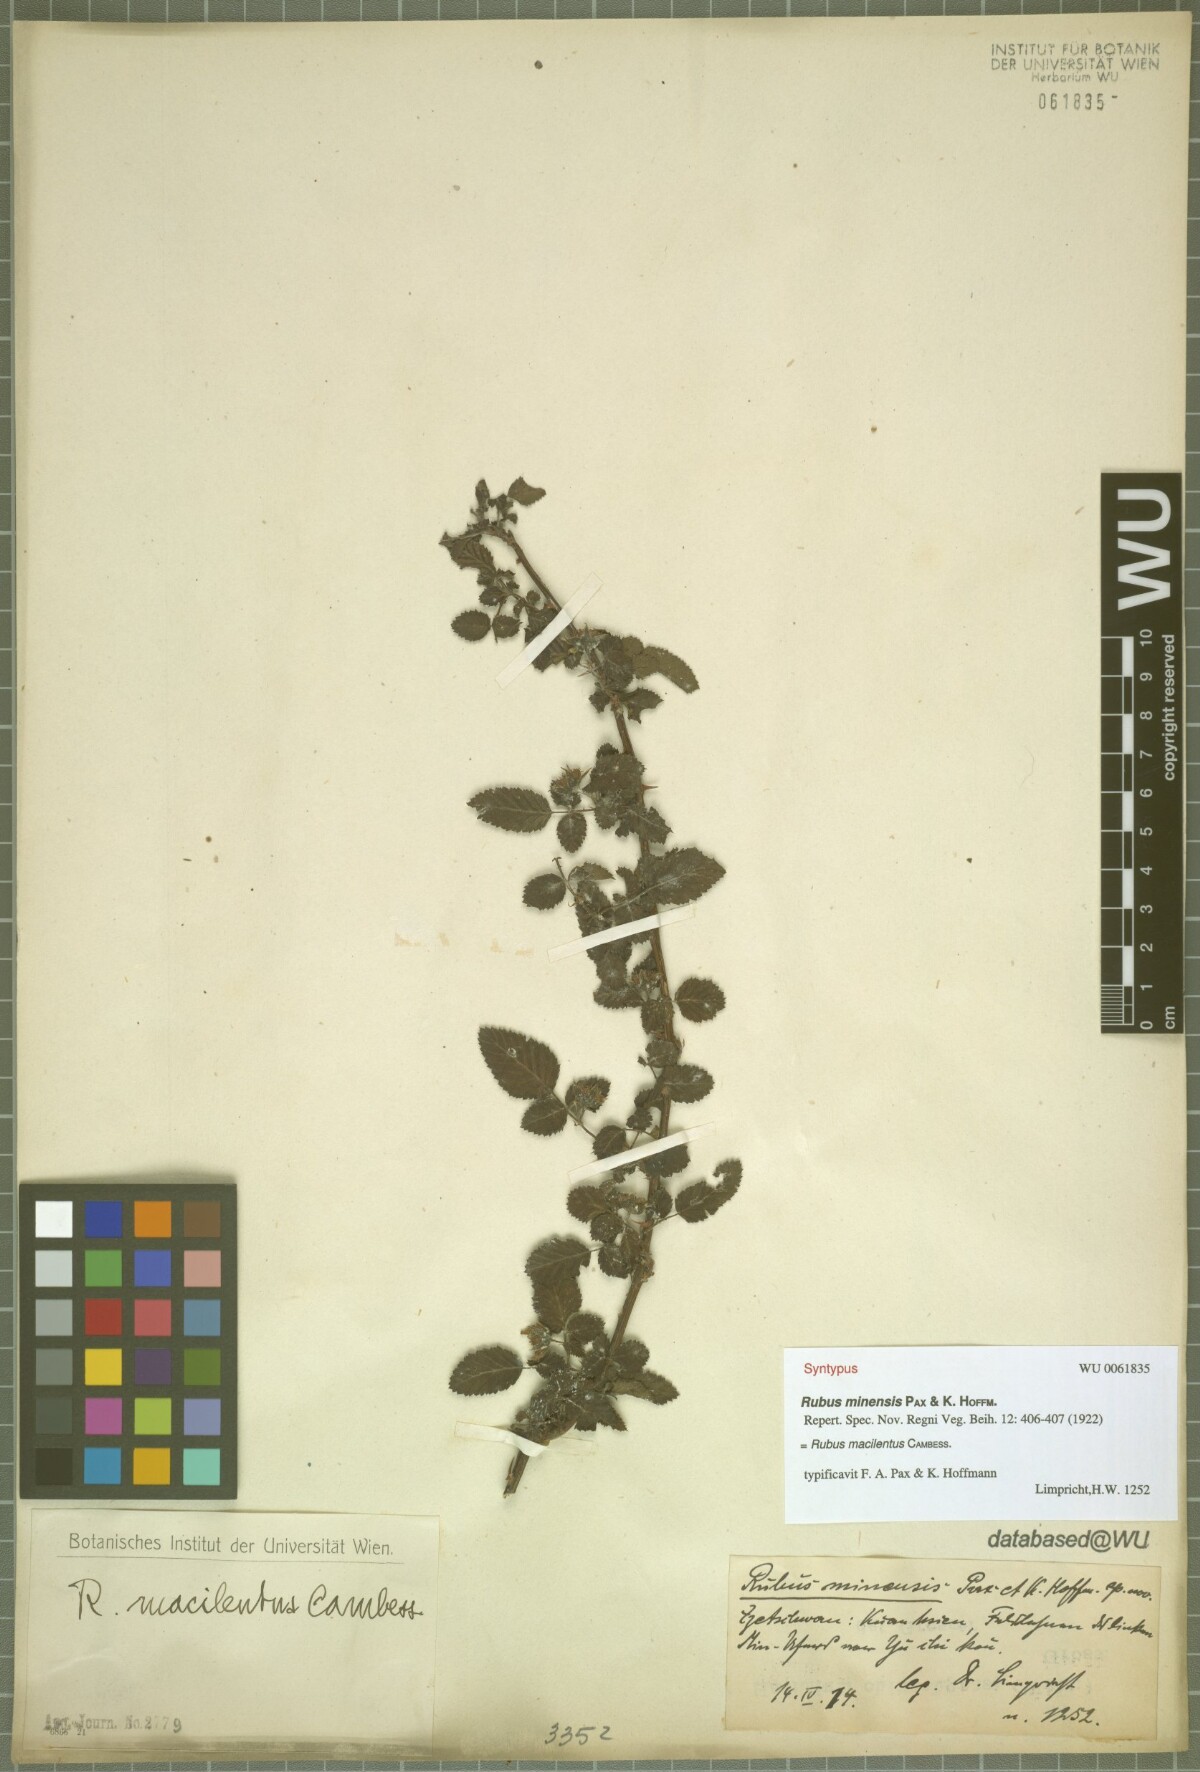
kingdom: Plantae
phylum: Tracheophyta
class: Magnoliopsida
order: Rosales
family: Rosaceae
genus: Rubus
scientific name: Rubus macilentus
